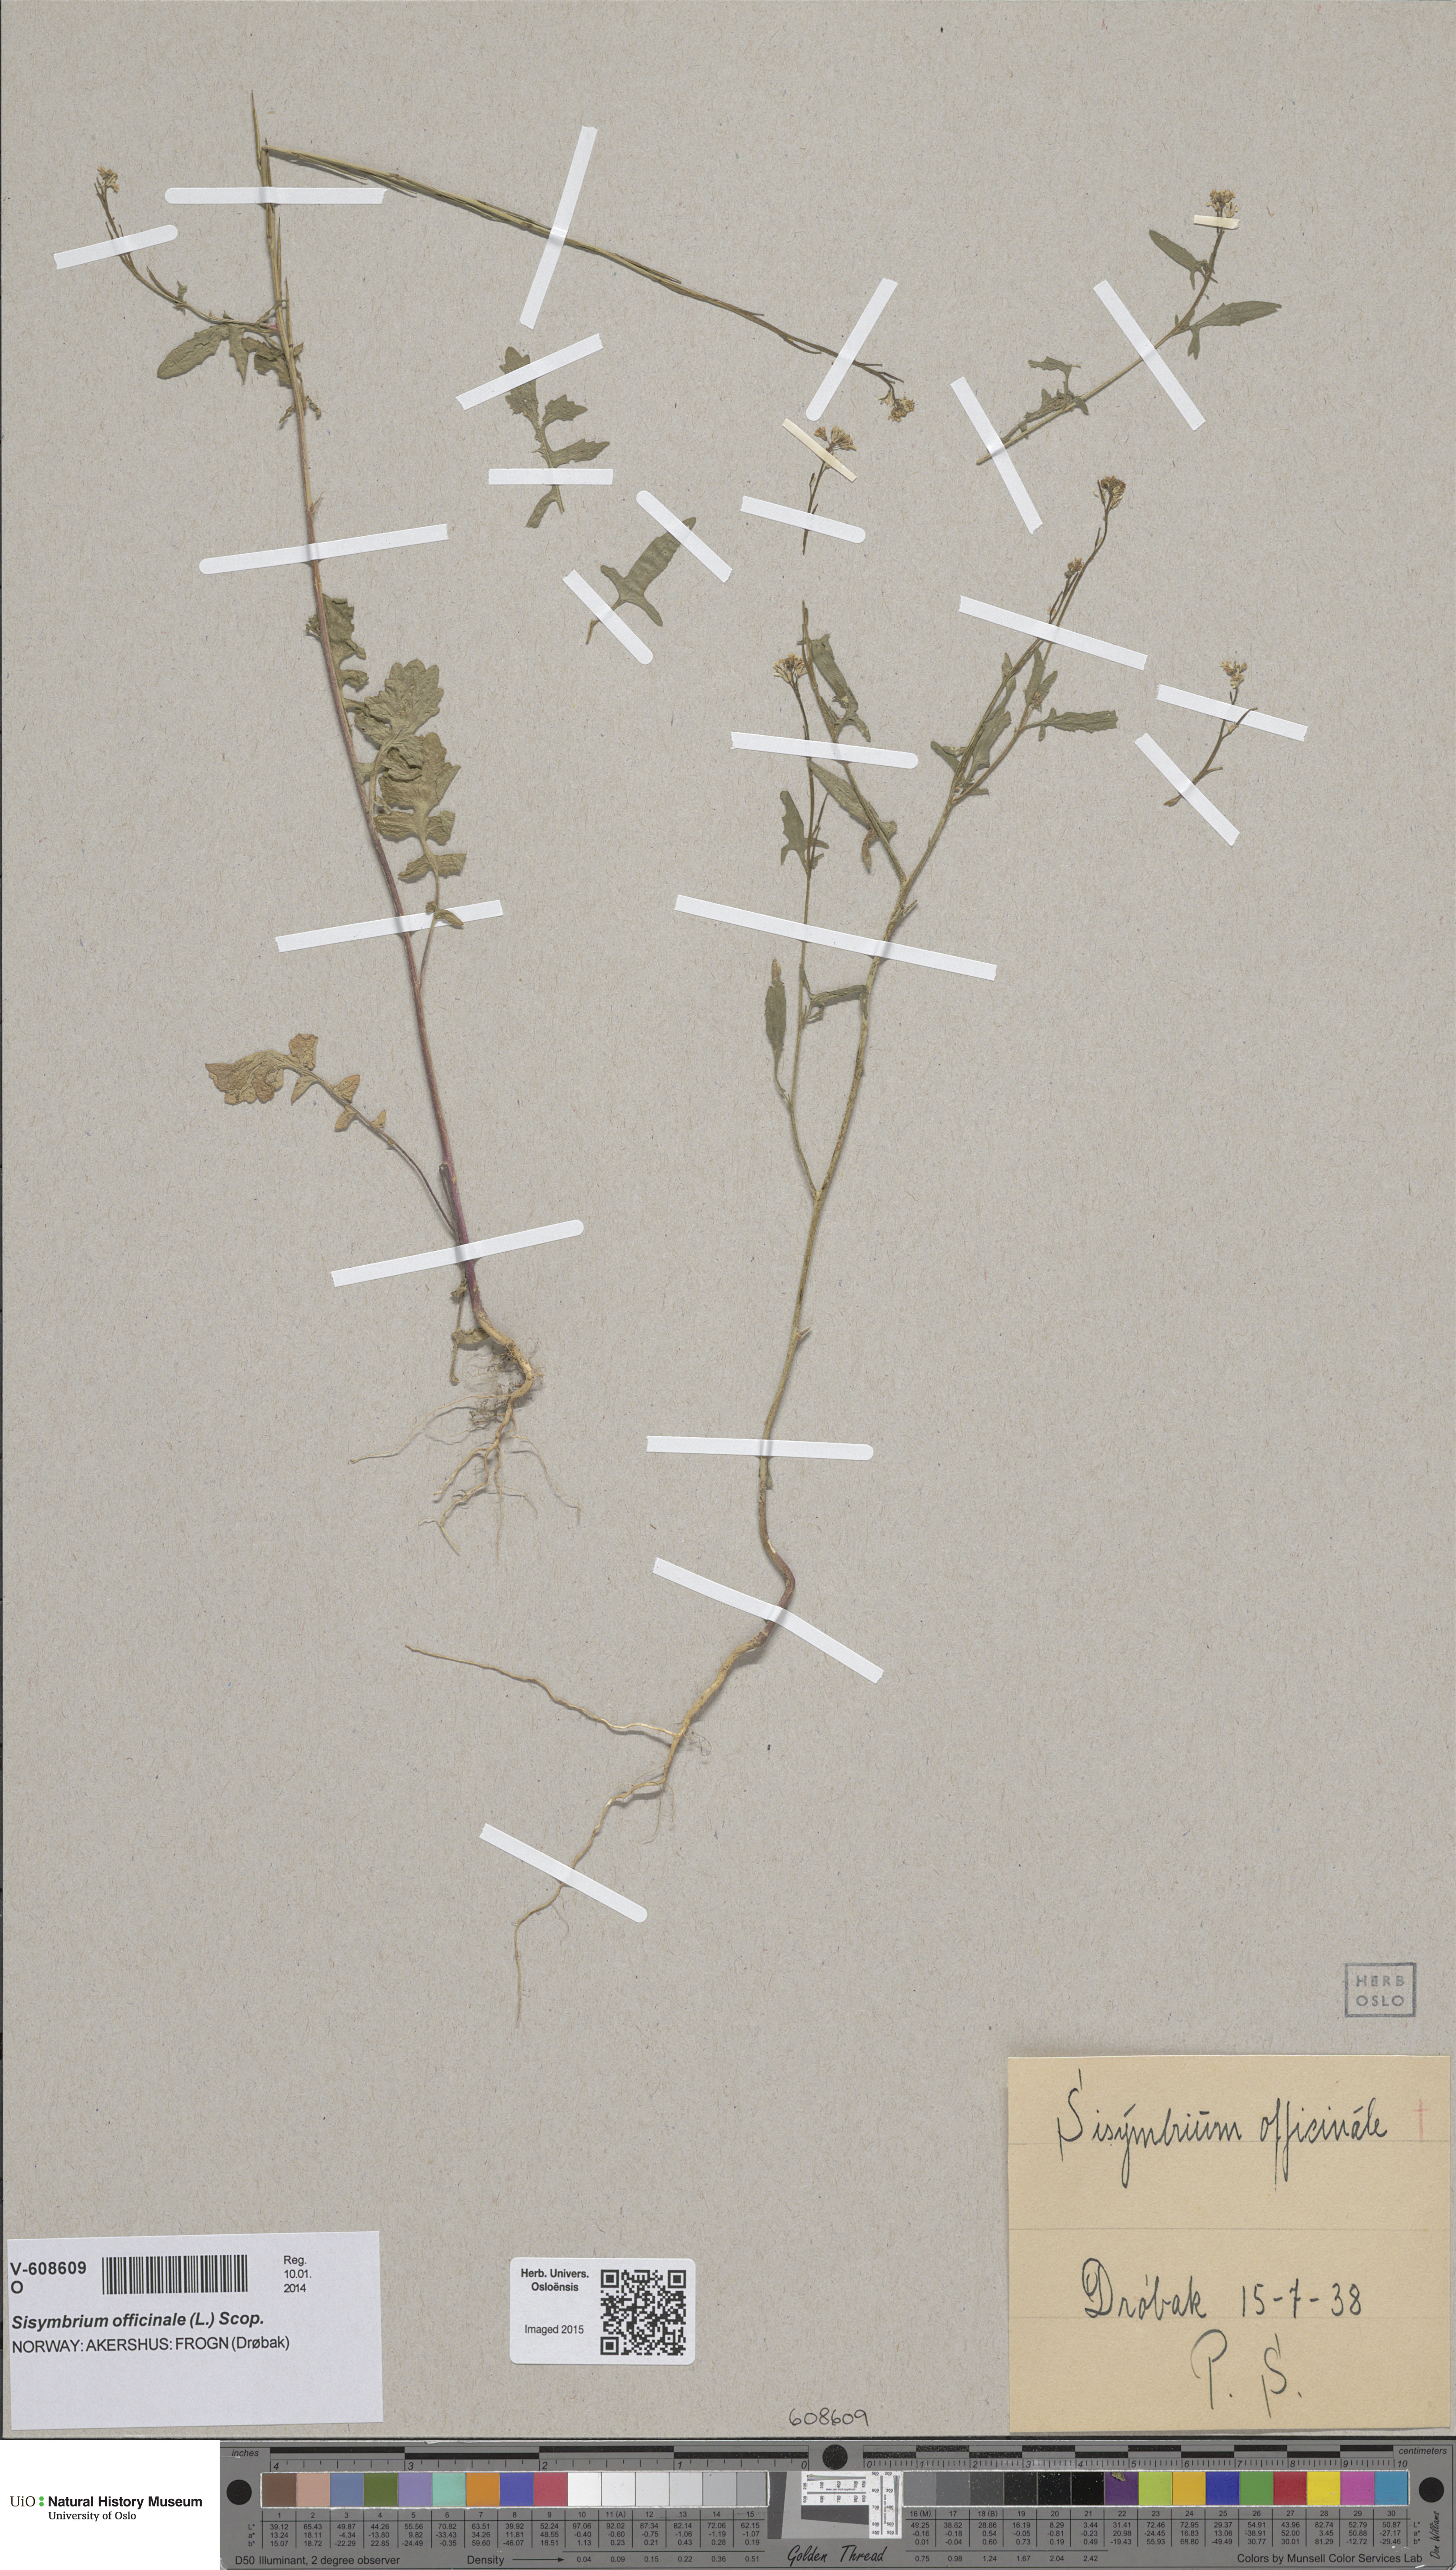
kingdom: Plantae
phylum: Tracheophyta
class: Magnoliopsida
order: Brassicales
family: Brassicaceae
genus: Sisymbrium
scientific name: Sisymbrium officinale
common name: Hedge mustard
